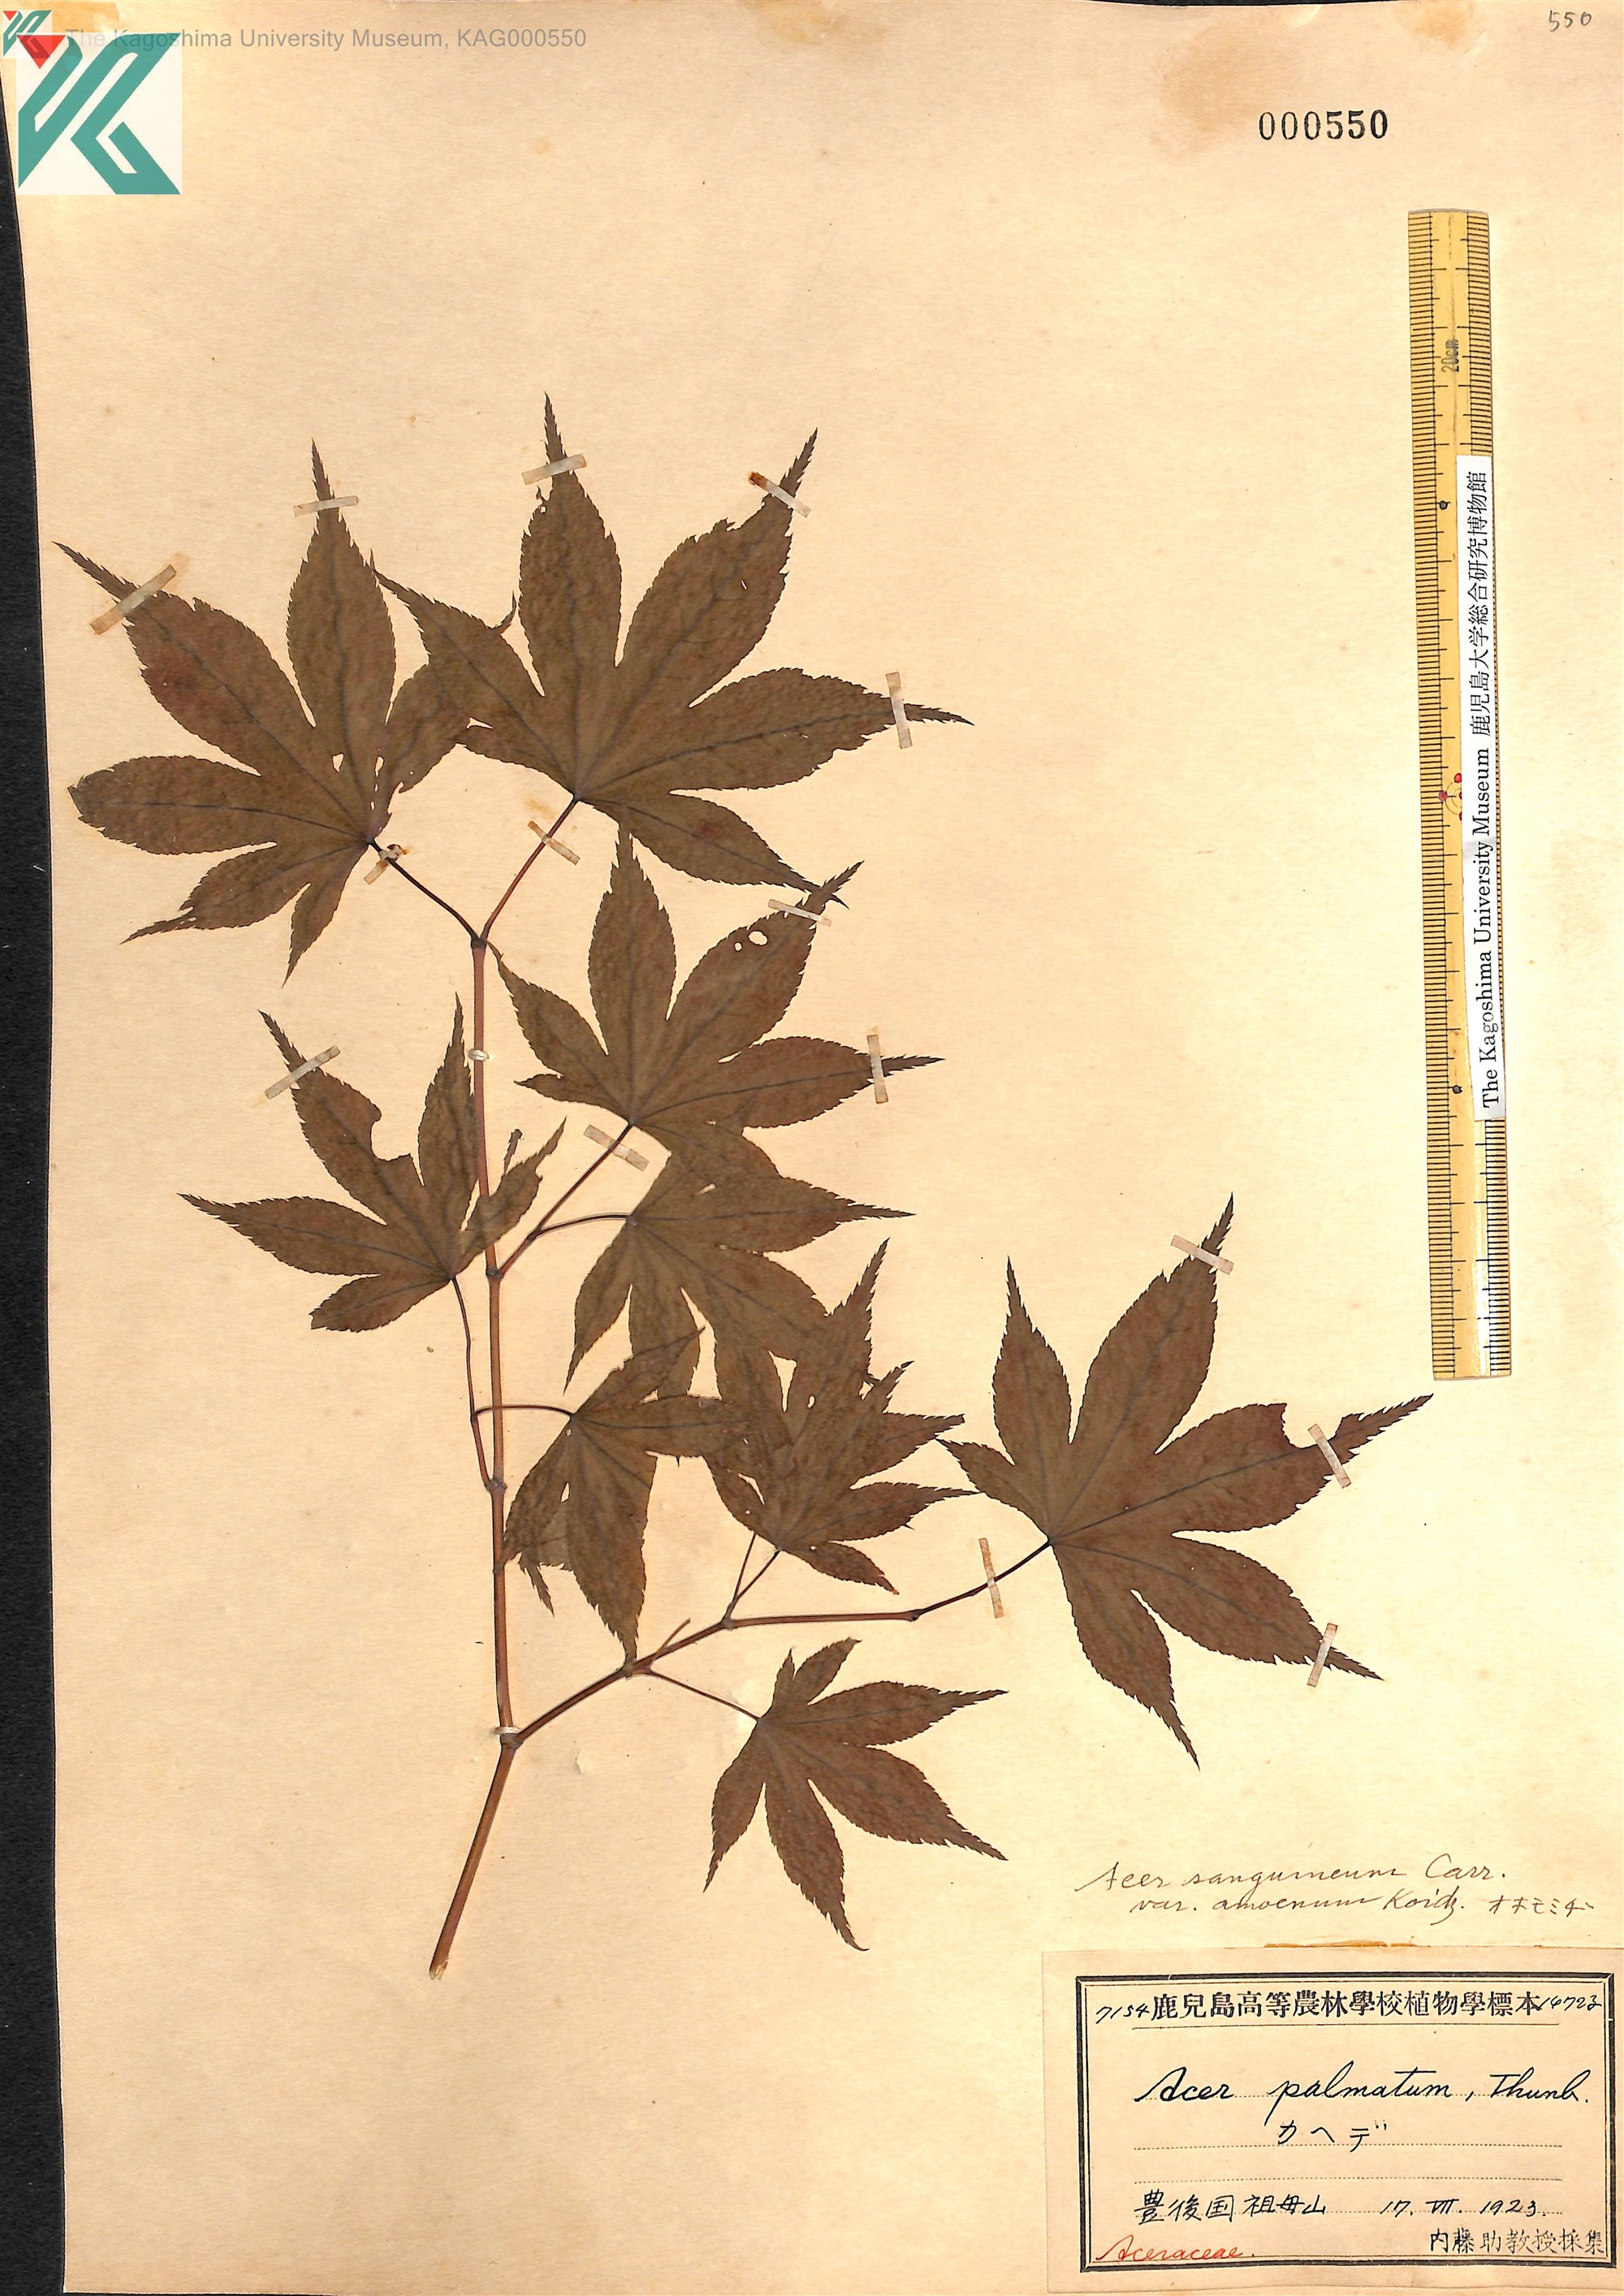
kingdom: Plantae
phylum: Tracheophyta
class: Magnoliopsida
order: Sapindales
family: Sapindaceae
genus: Acer
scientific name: Acer palmatum
